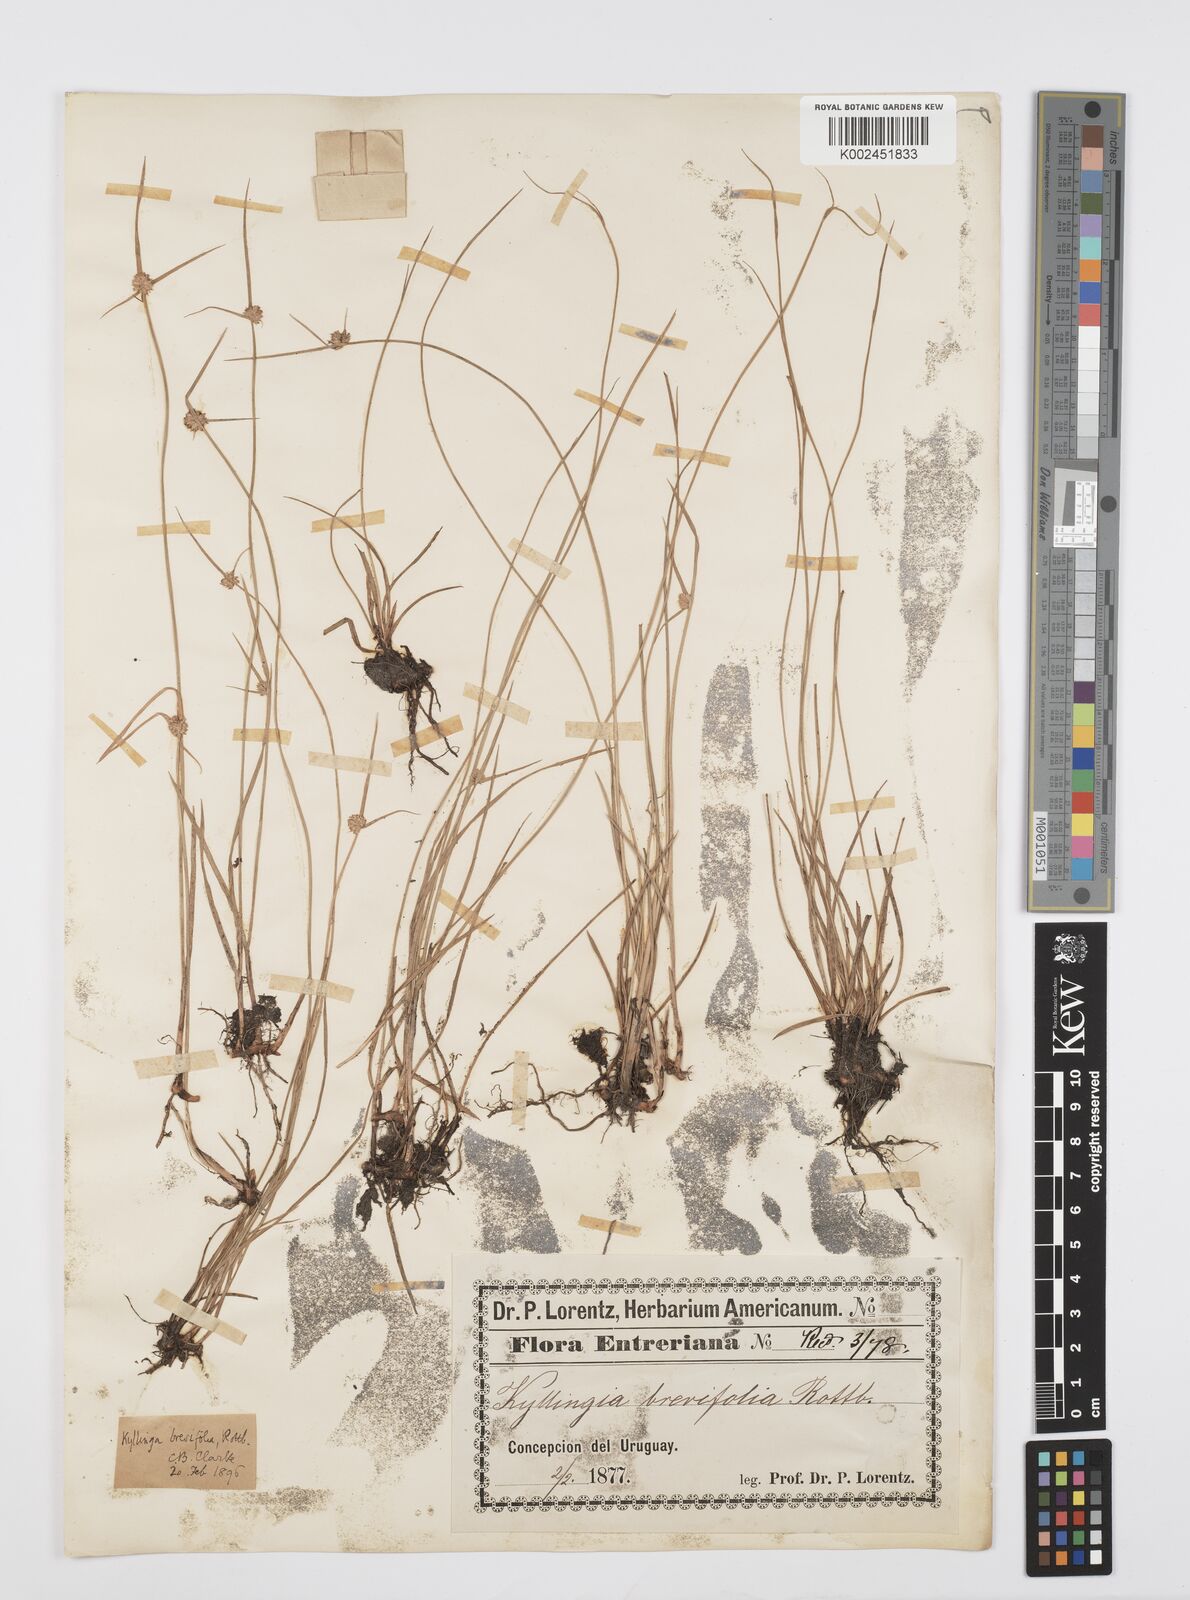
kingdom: Plantae
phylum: Tracheophyta
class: Liliopsida
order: Poales
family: Cyperaceae
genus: Cyperus
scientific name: Cyperus brevifolius
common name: Globe kyllinga
